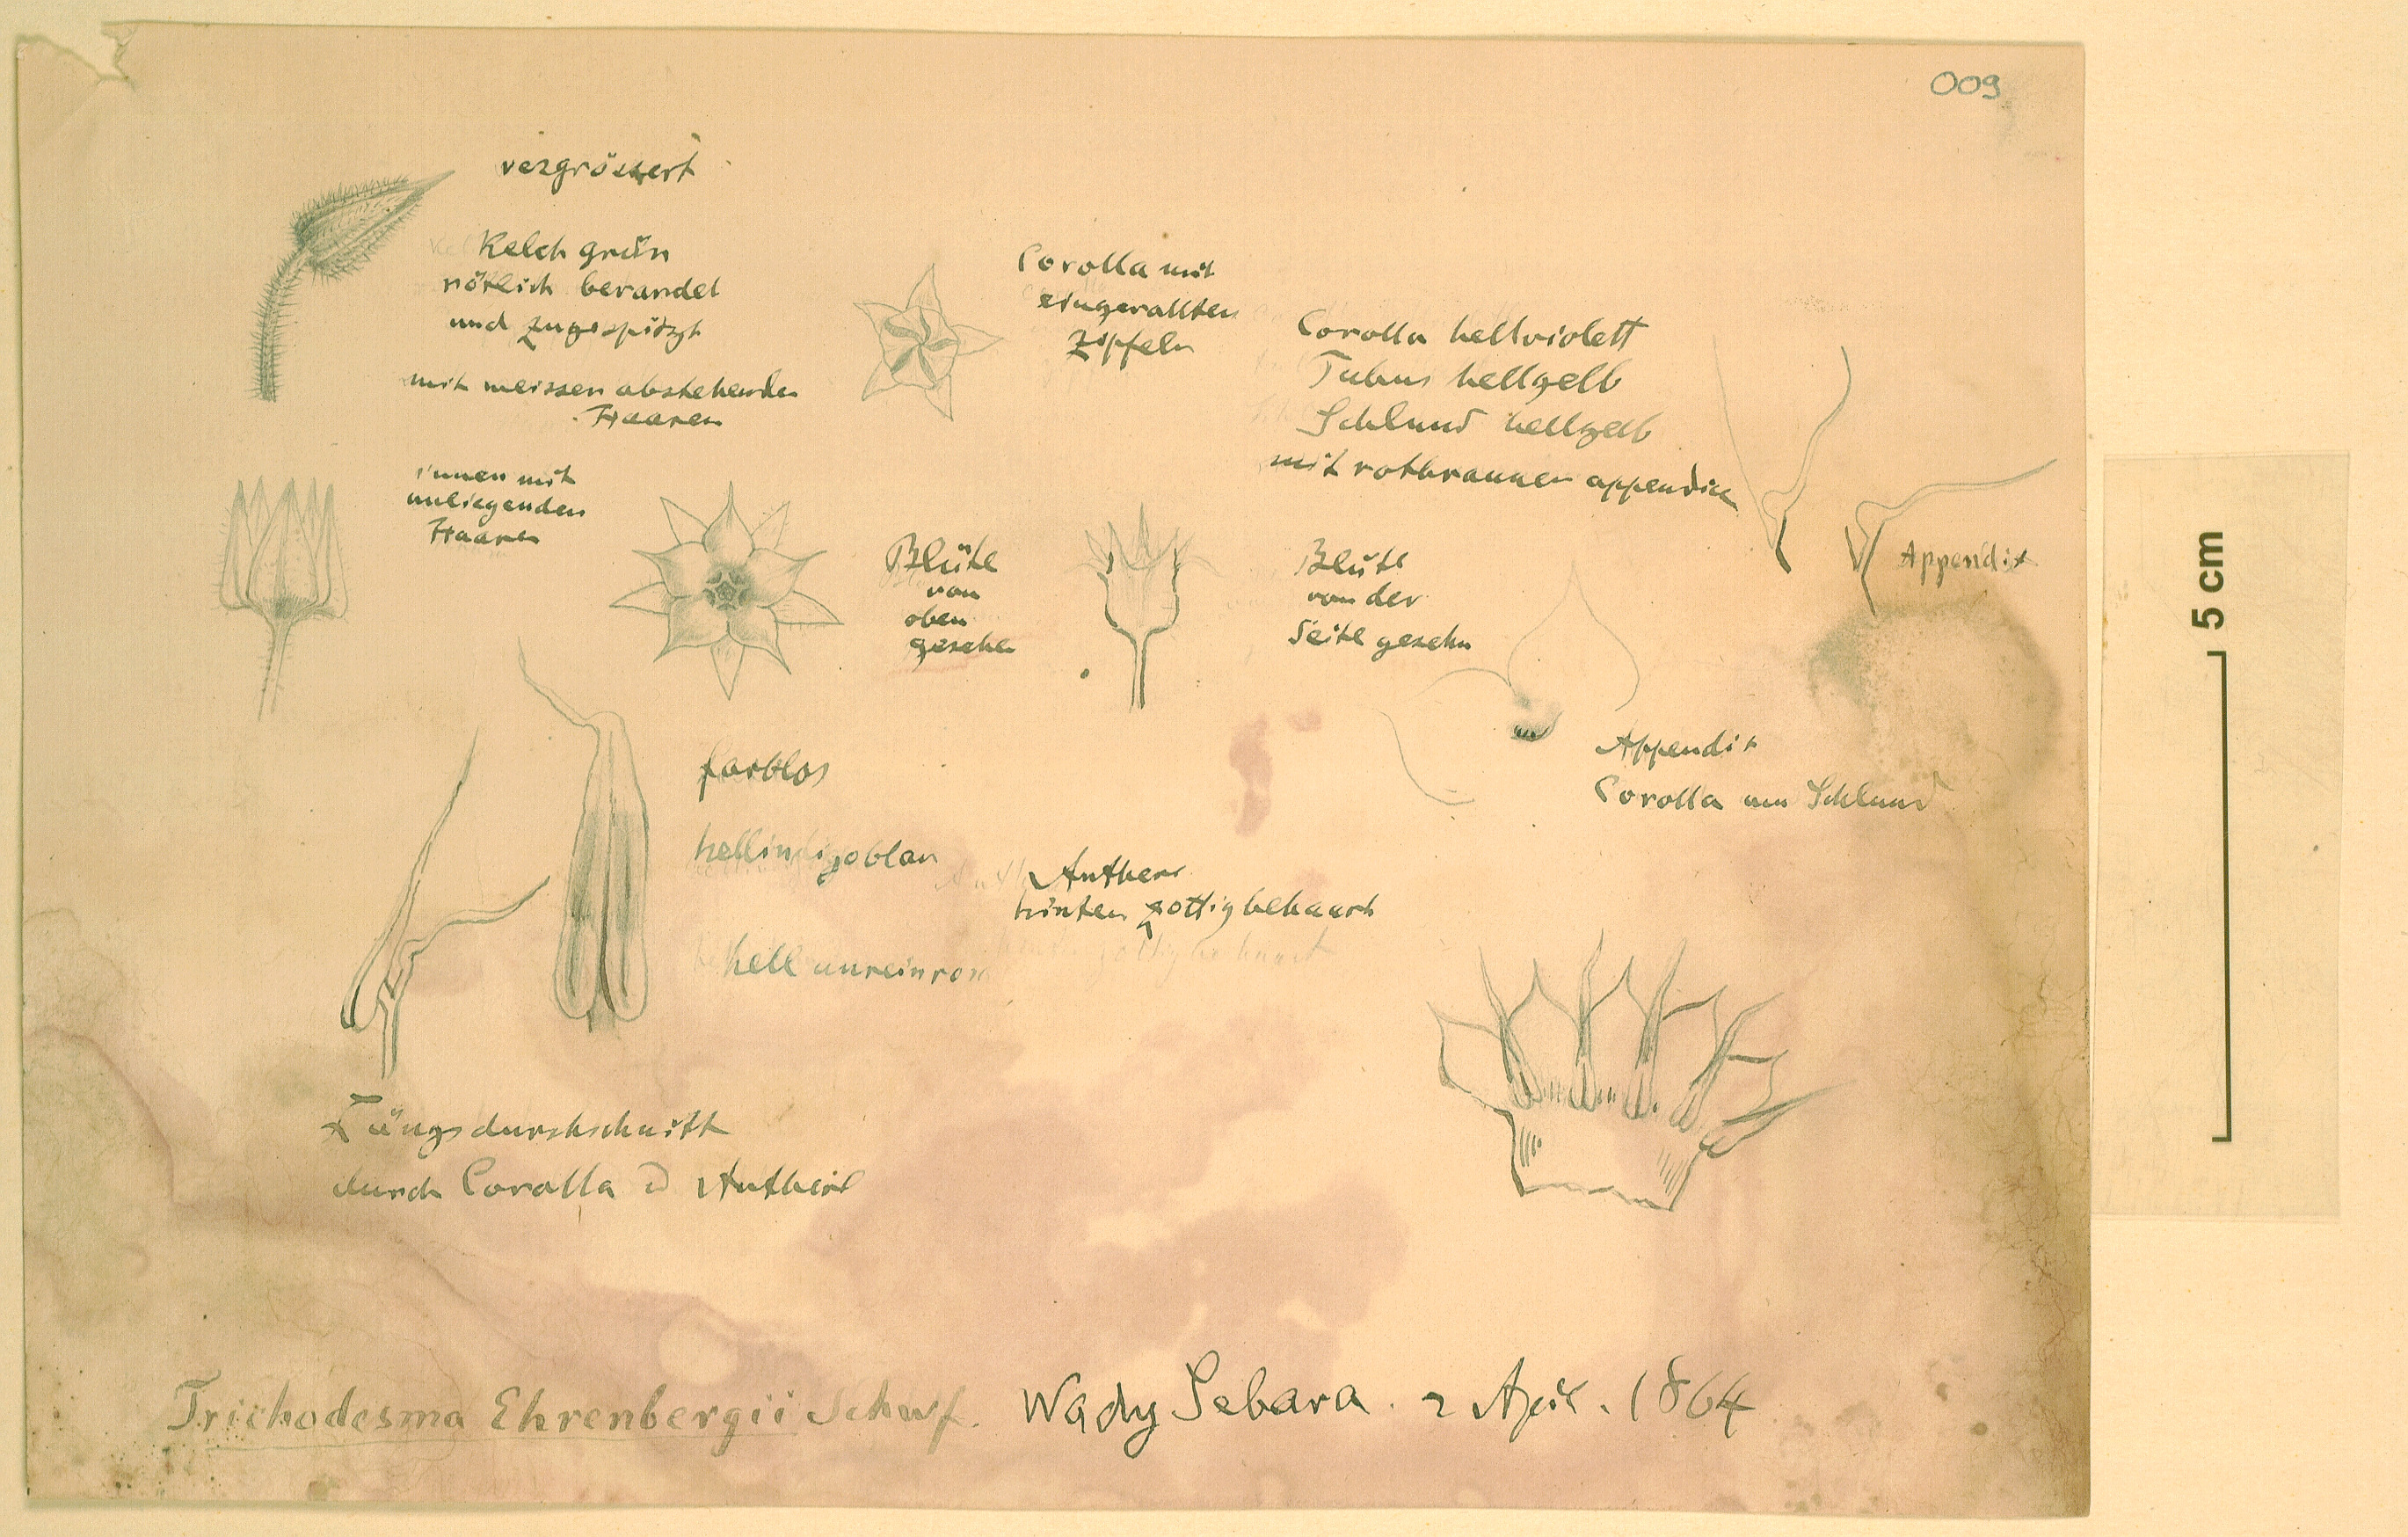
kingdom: Plantae
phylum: Tracheophyta
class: Magnoliopsida
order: Boraginales
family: Boraginaceae
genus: Trichodesma
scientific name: Trichodesma ehrenbergii
